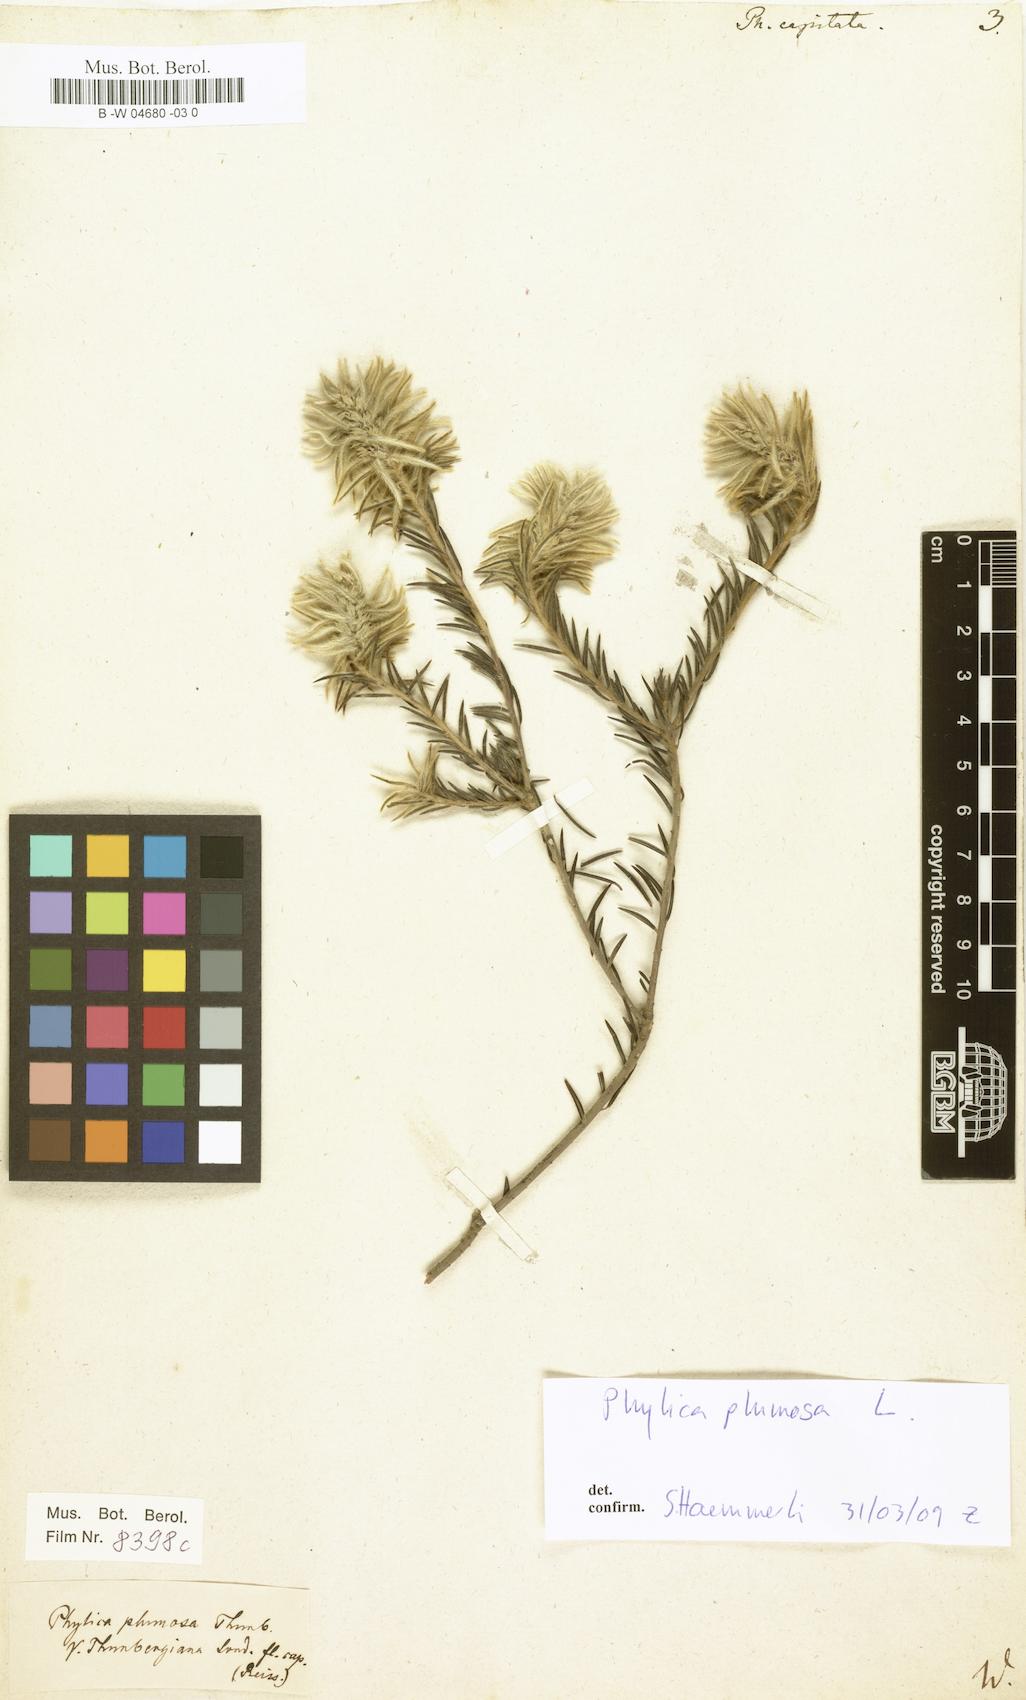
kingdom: Plantae
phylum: Tracheophyta
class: Magnoliopsida
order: Rosales
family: Rhamnaceae
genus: Phylica
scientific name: Phylica pubescens
